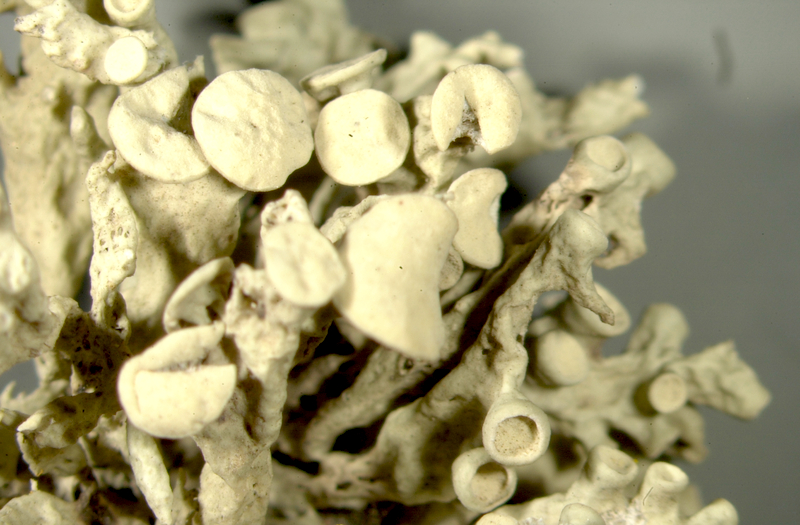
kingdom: Fungi
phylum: Ascomycota
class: Lecanoromycetes
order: Lecanorales
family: Parmeliaceae
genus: Lichen
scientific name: Lichen
